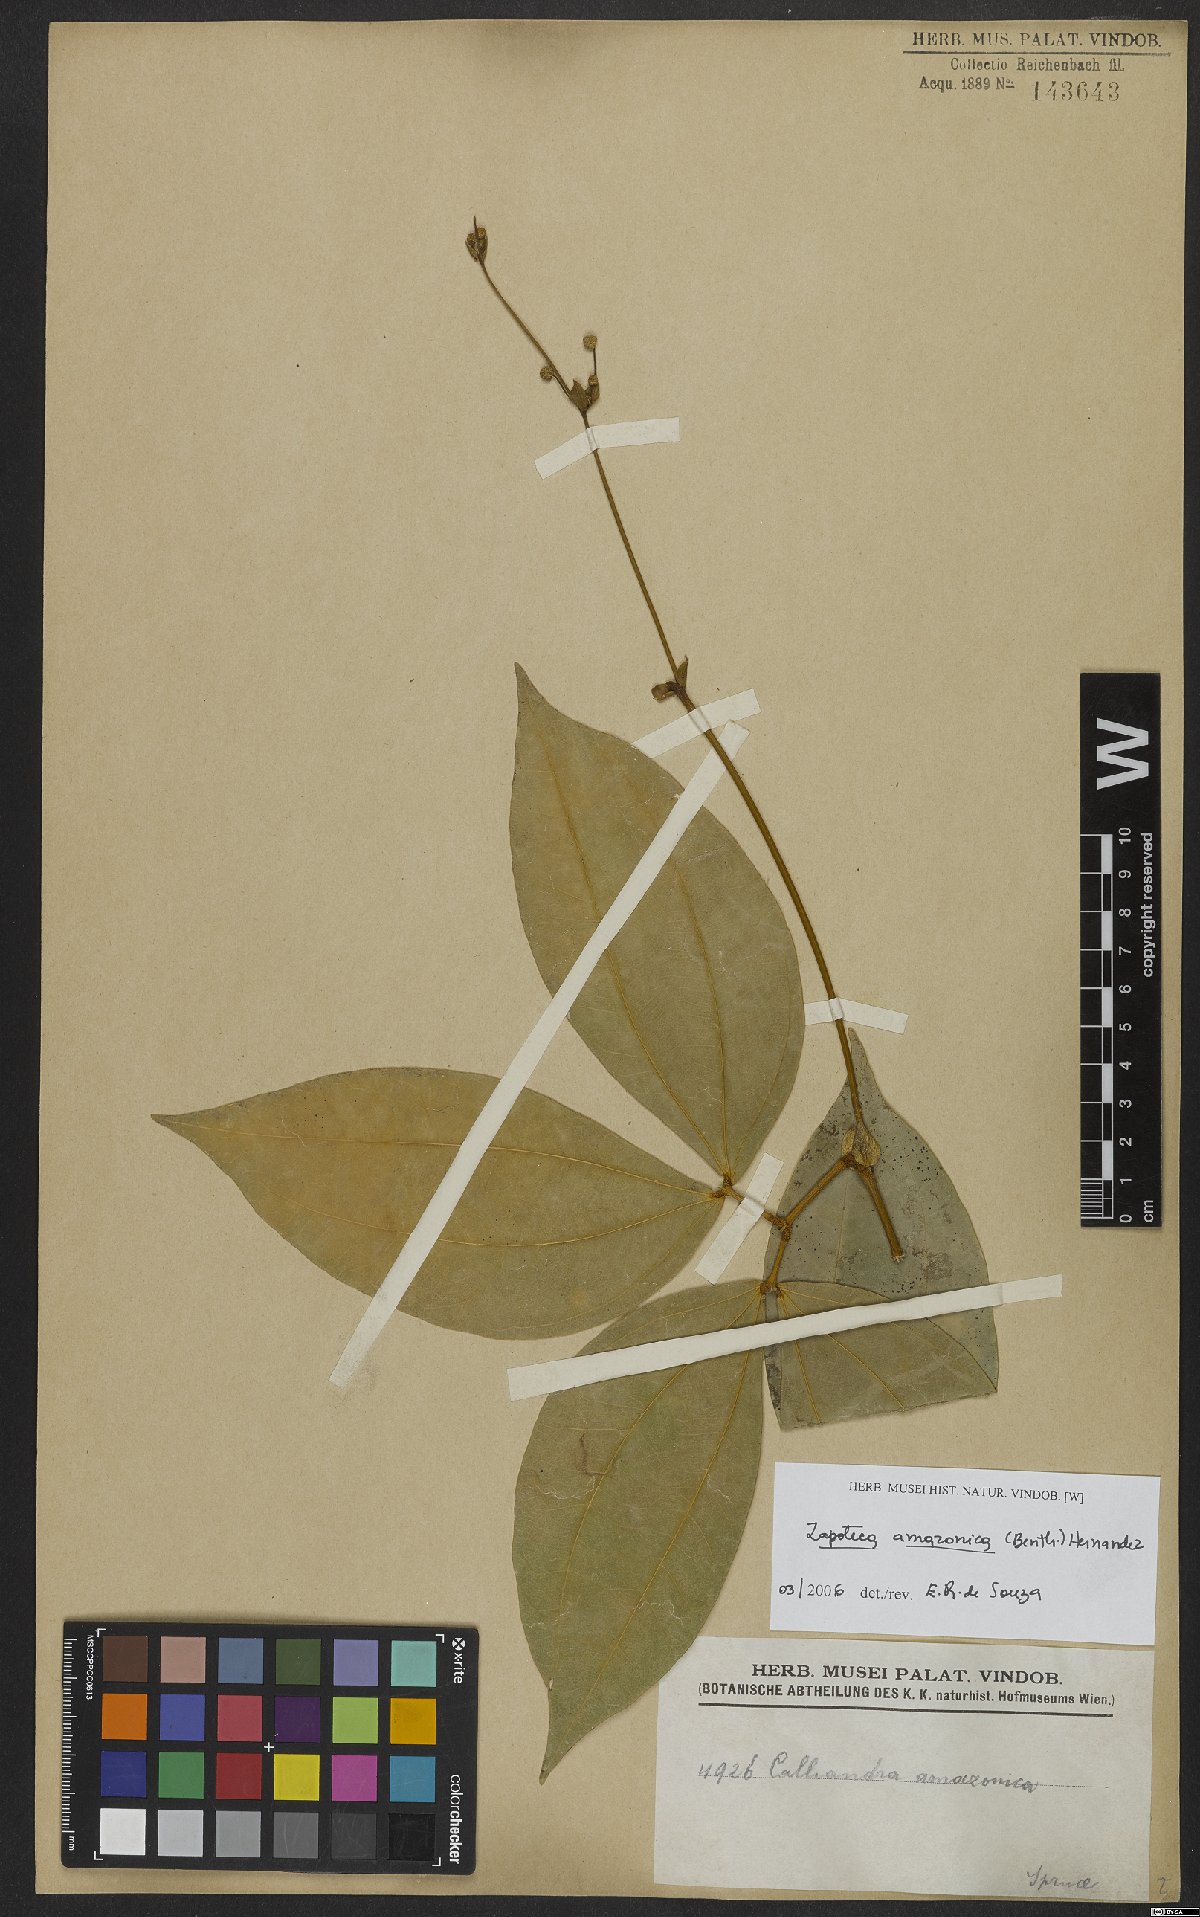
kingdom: Plantae
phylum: Tracheophyta
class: Magnoliopsida
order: Fabales
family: Fabaceae
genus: Zapoteca
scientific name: Zapoteca amazonica
